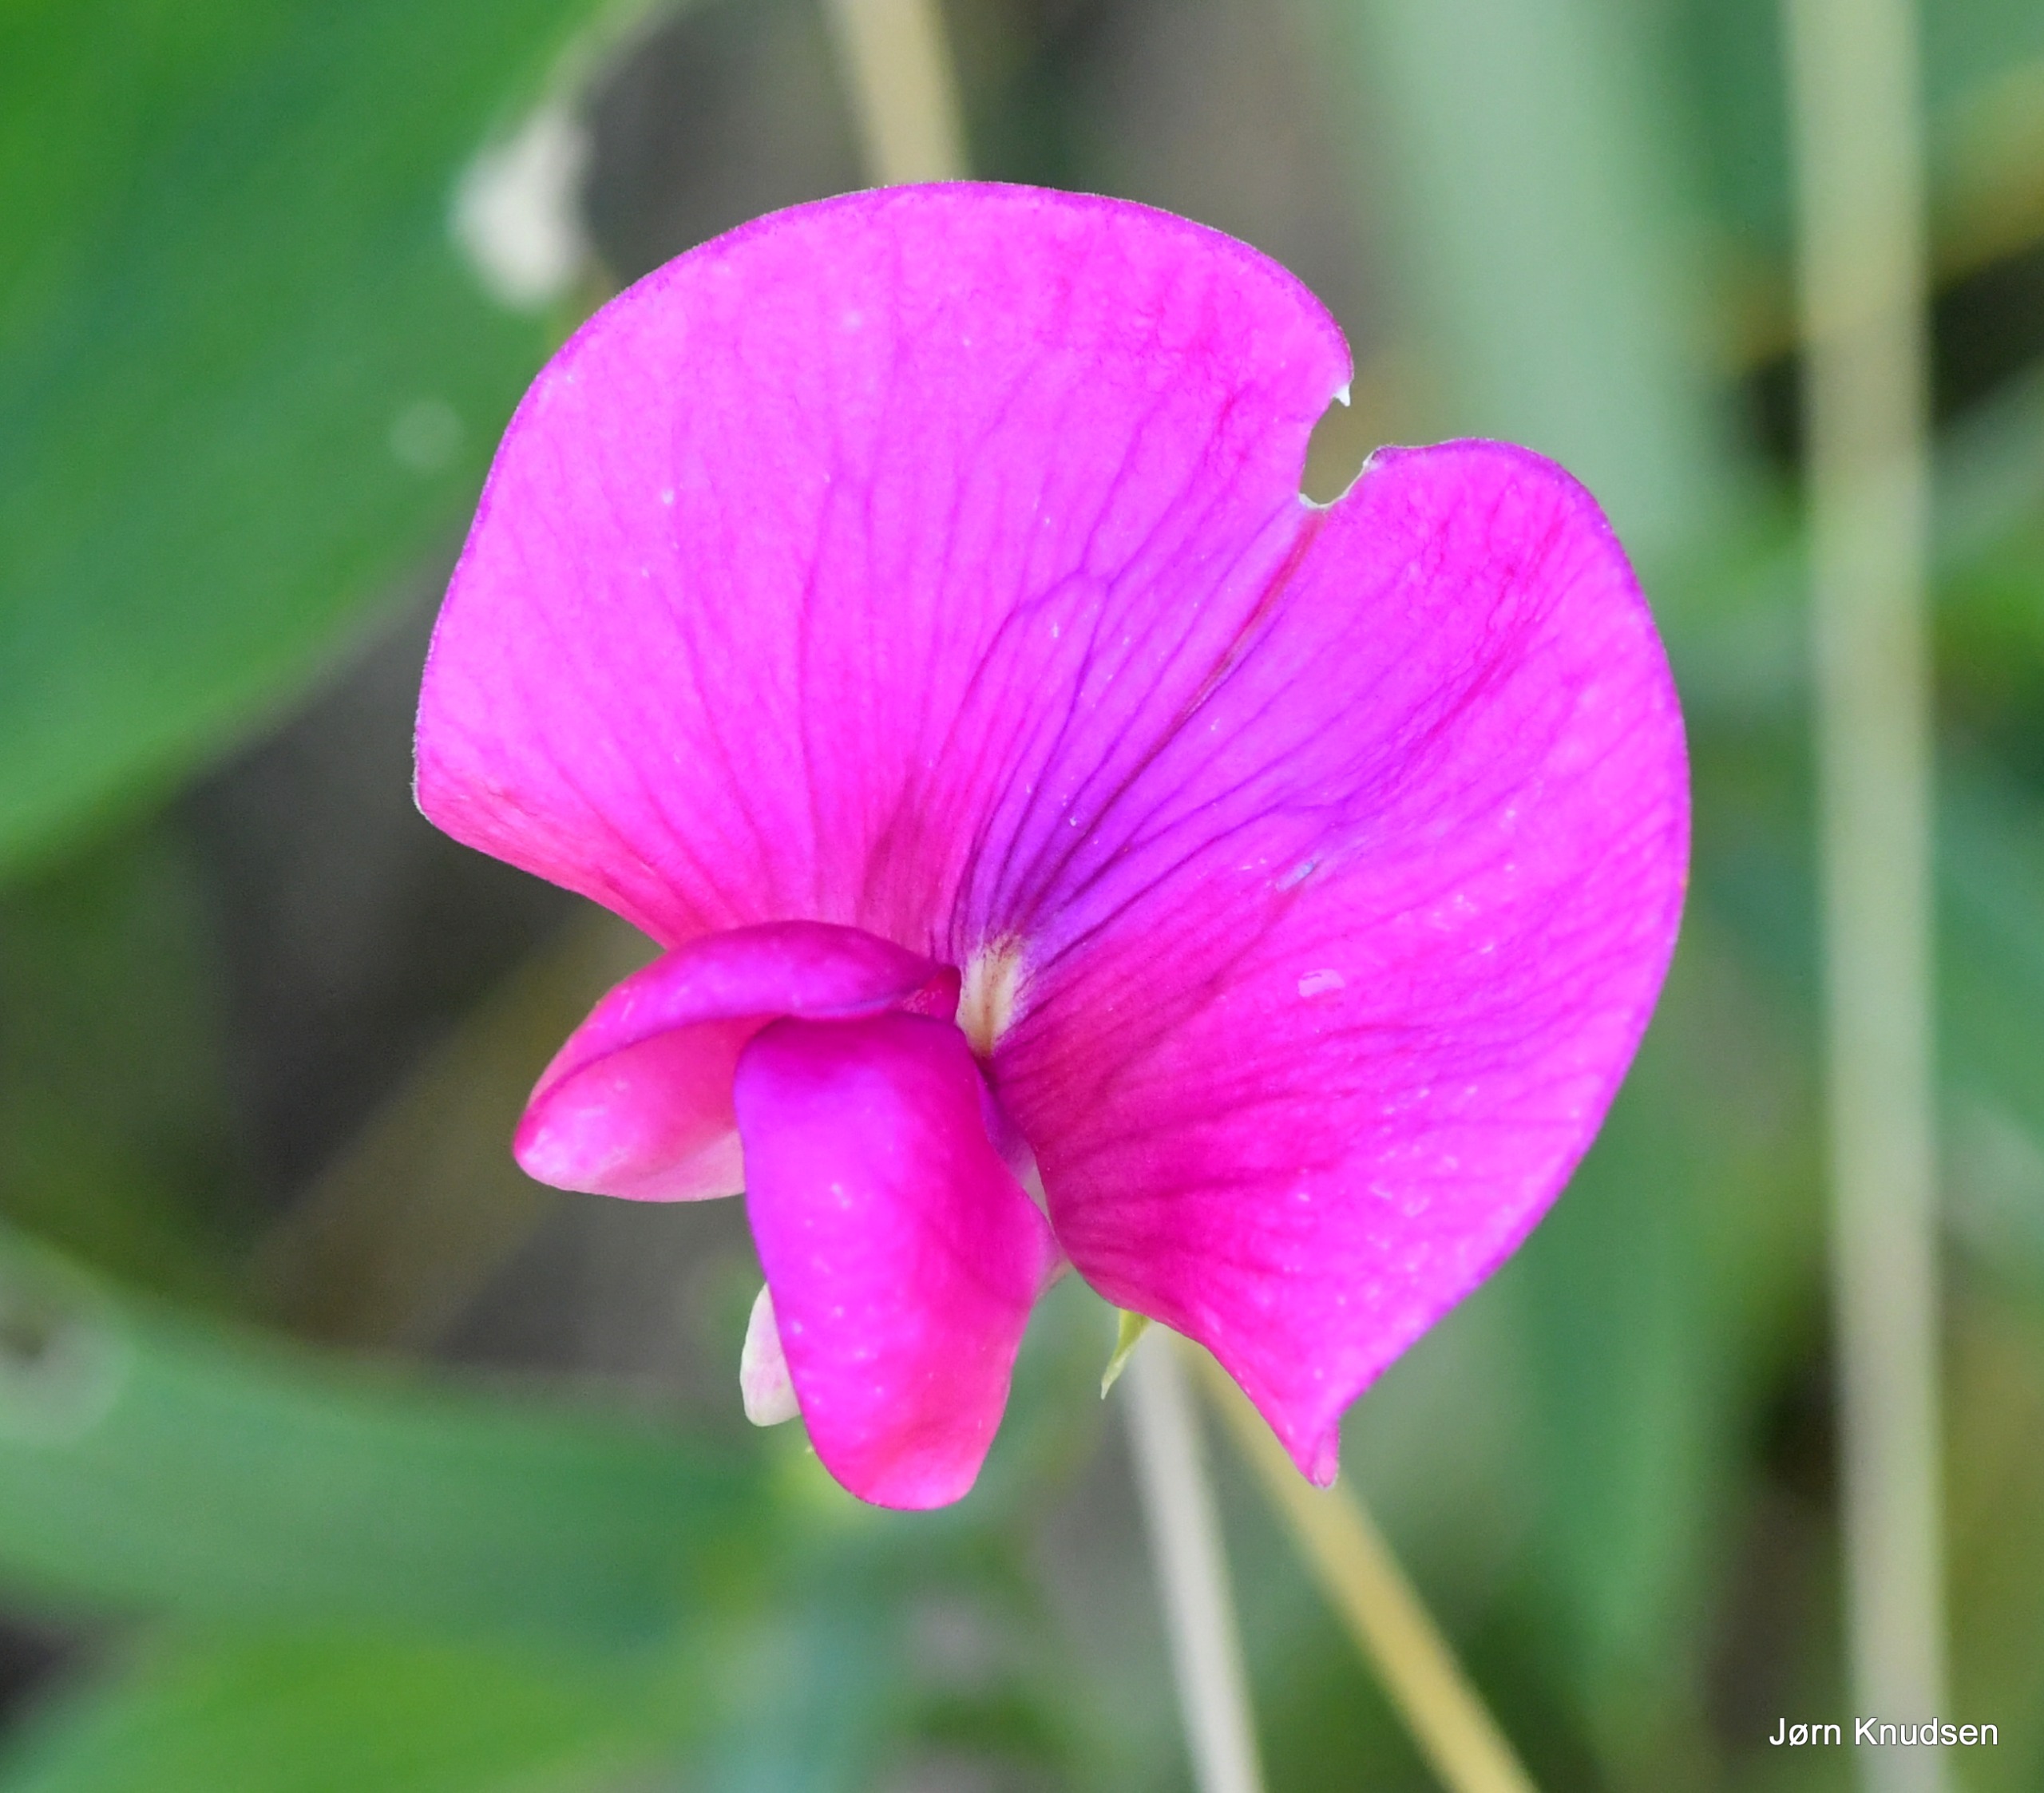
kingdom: Plantae
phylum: Tracheophyta
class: Magnoliopsida
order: Fabales
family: Fabaceae
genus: Lathyrus
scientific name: Lathyrus latifolius
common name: Flerårig ærteblomst
